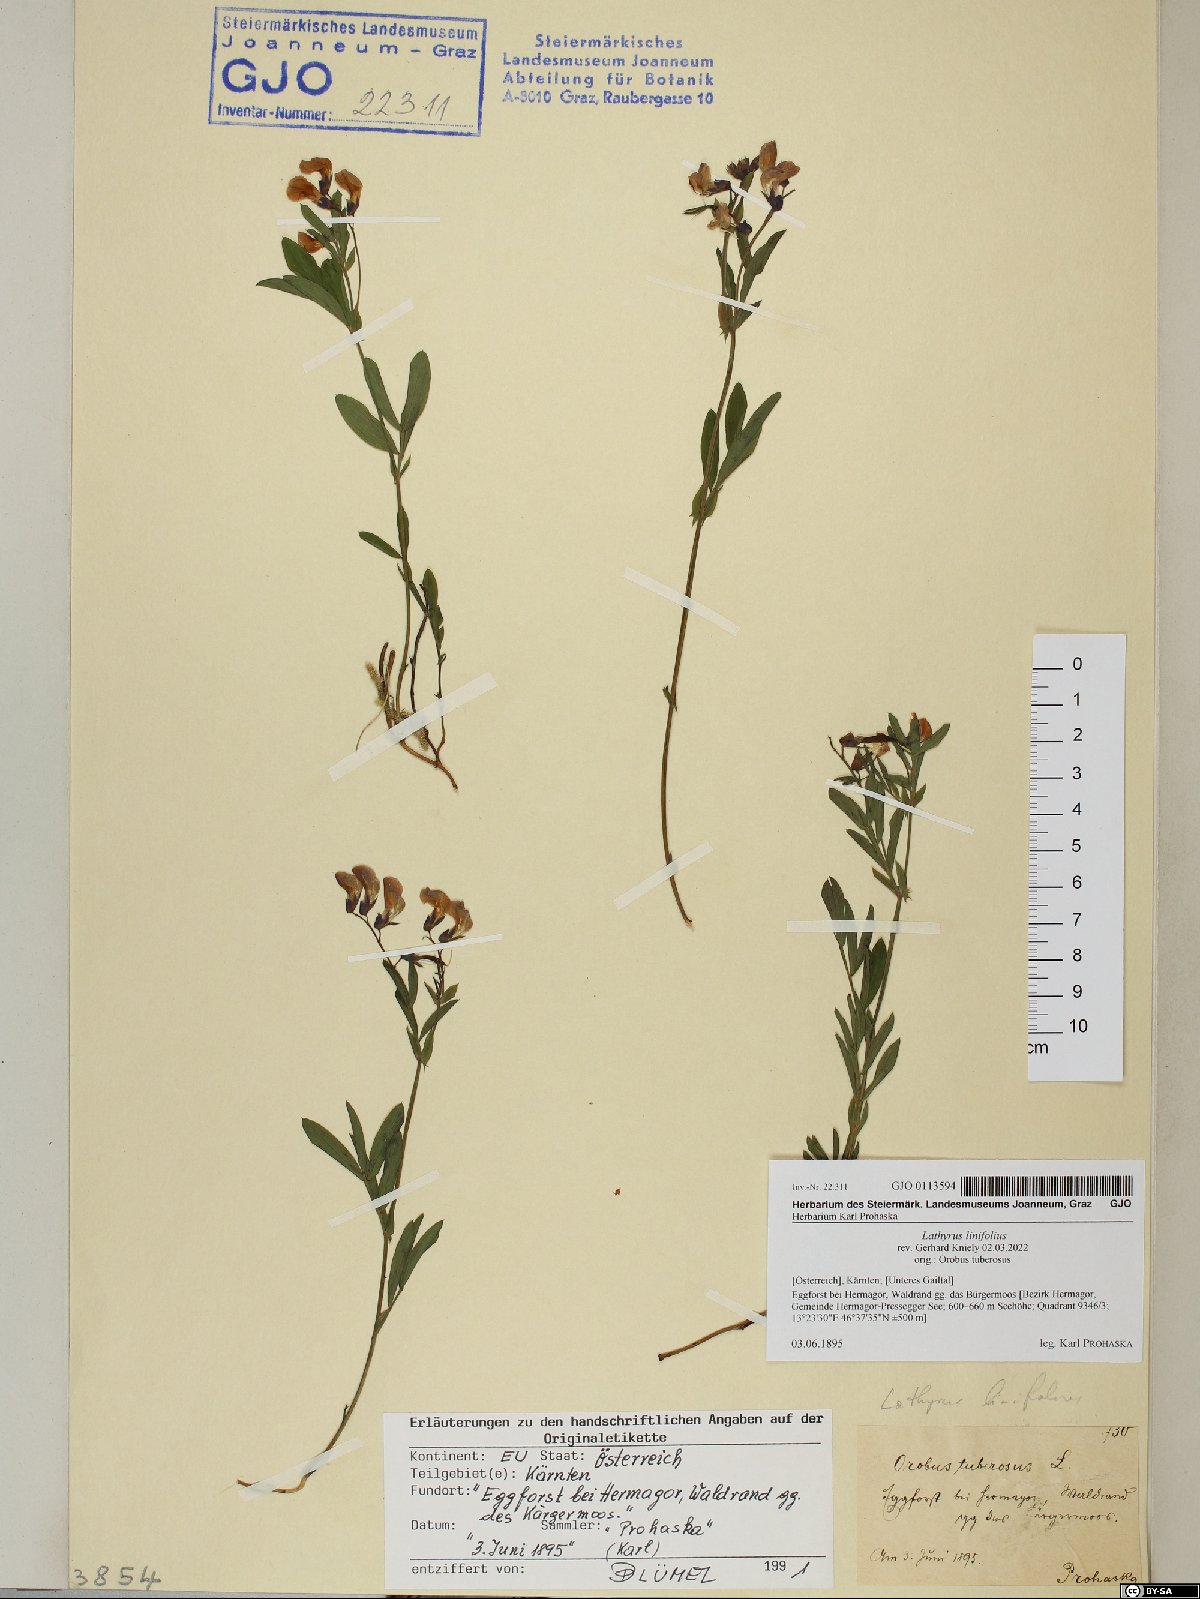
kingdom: Plantae
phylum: Tracheophyta
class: Magnoliopsida
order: Fabales
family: Fabaceae
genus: Lathyrus
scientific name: Lathyrus linifolius
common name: Bitter-vetch
